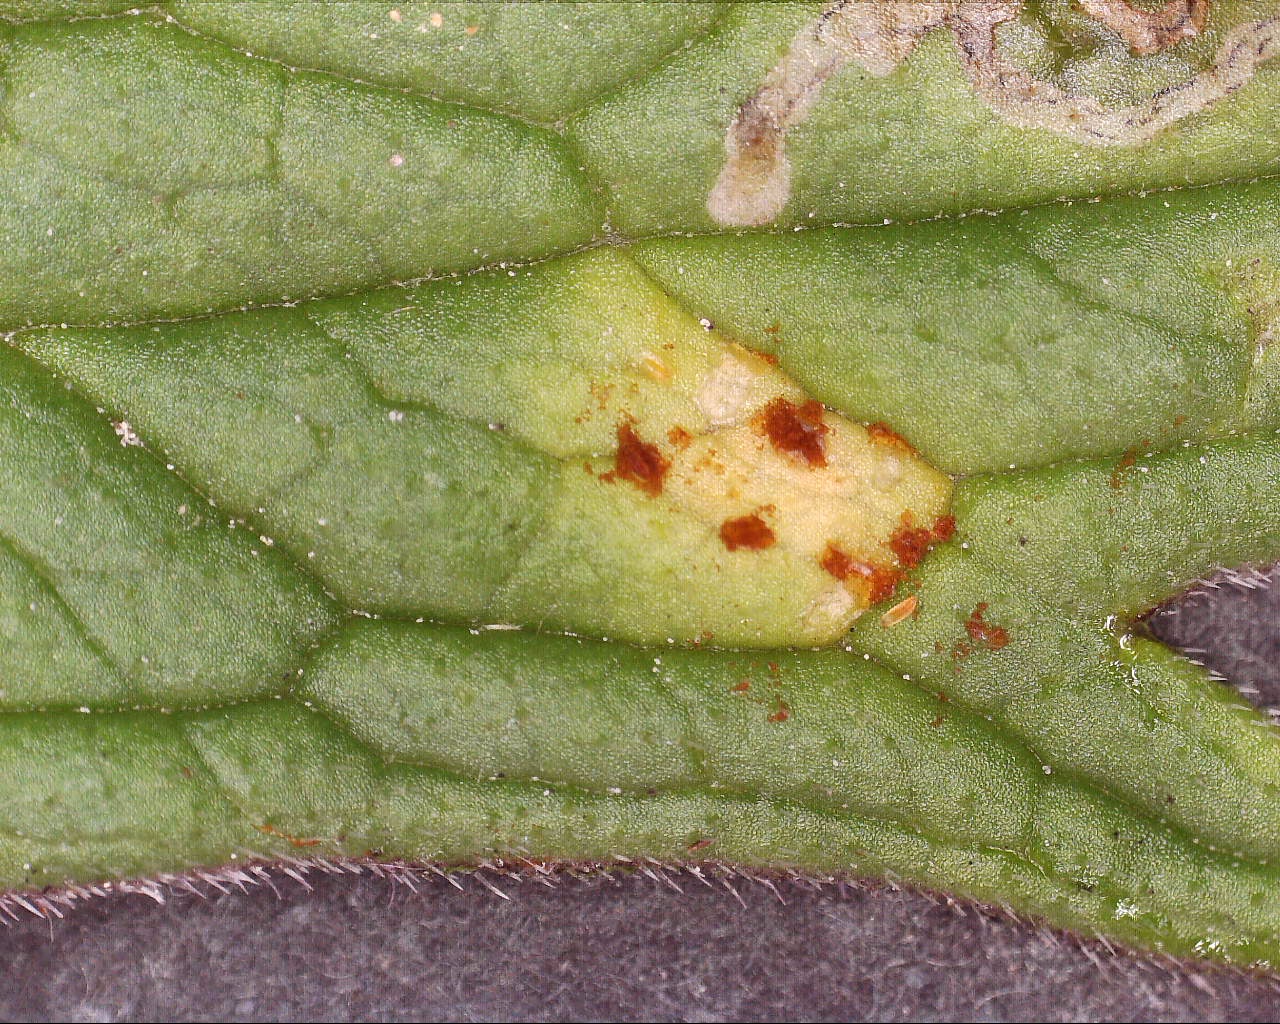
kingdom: Fungi
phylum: Basidiomycota
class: Pucciniomycetes
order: Pucciniales
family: Pucciniaceae
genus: Uromyces
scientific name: Uromyces valerianae
